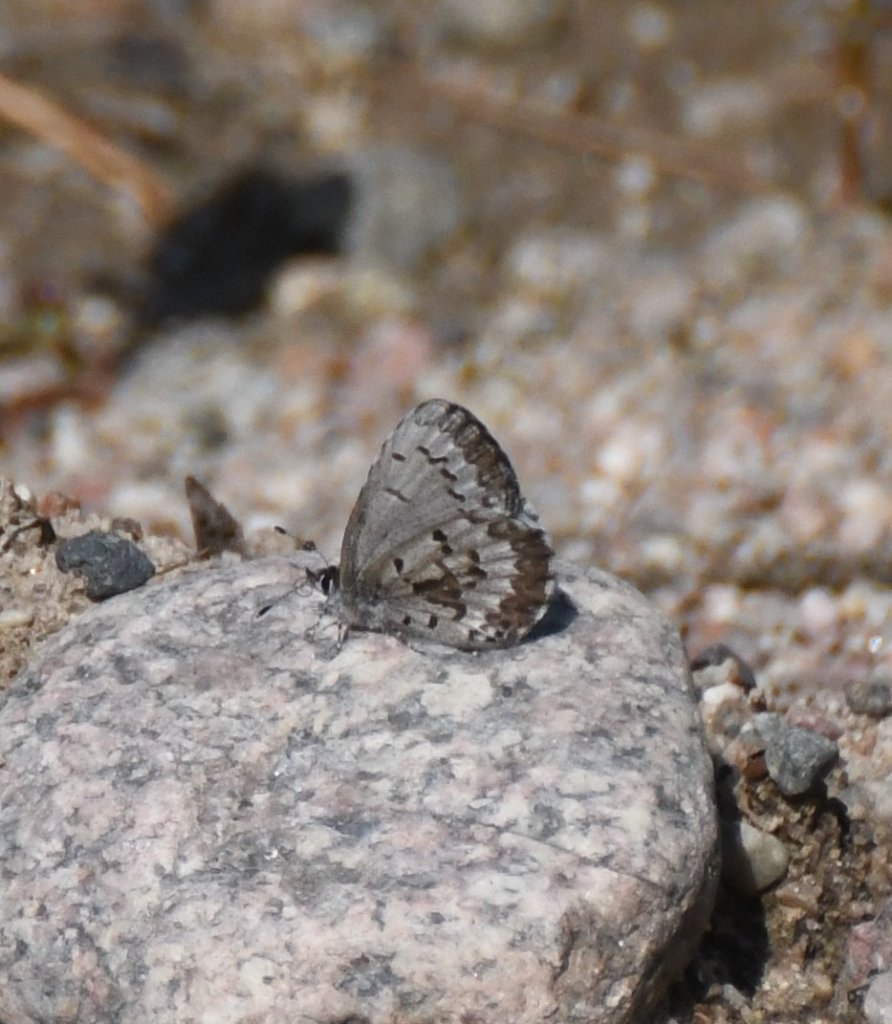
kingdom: Animalia
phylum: Arthropoda
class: Insecta
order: Lepidoptera
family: Lycaenidae
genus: Celastrina
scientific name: Celastrina lucia
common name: Northern Spring Azure
